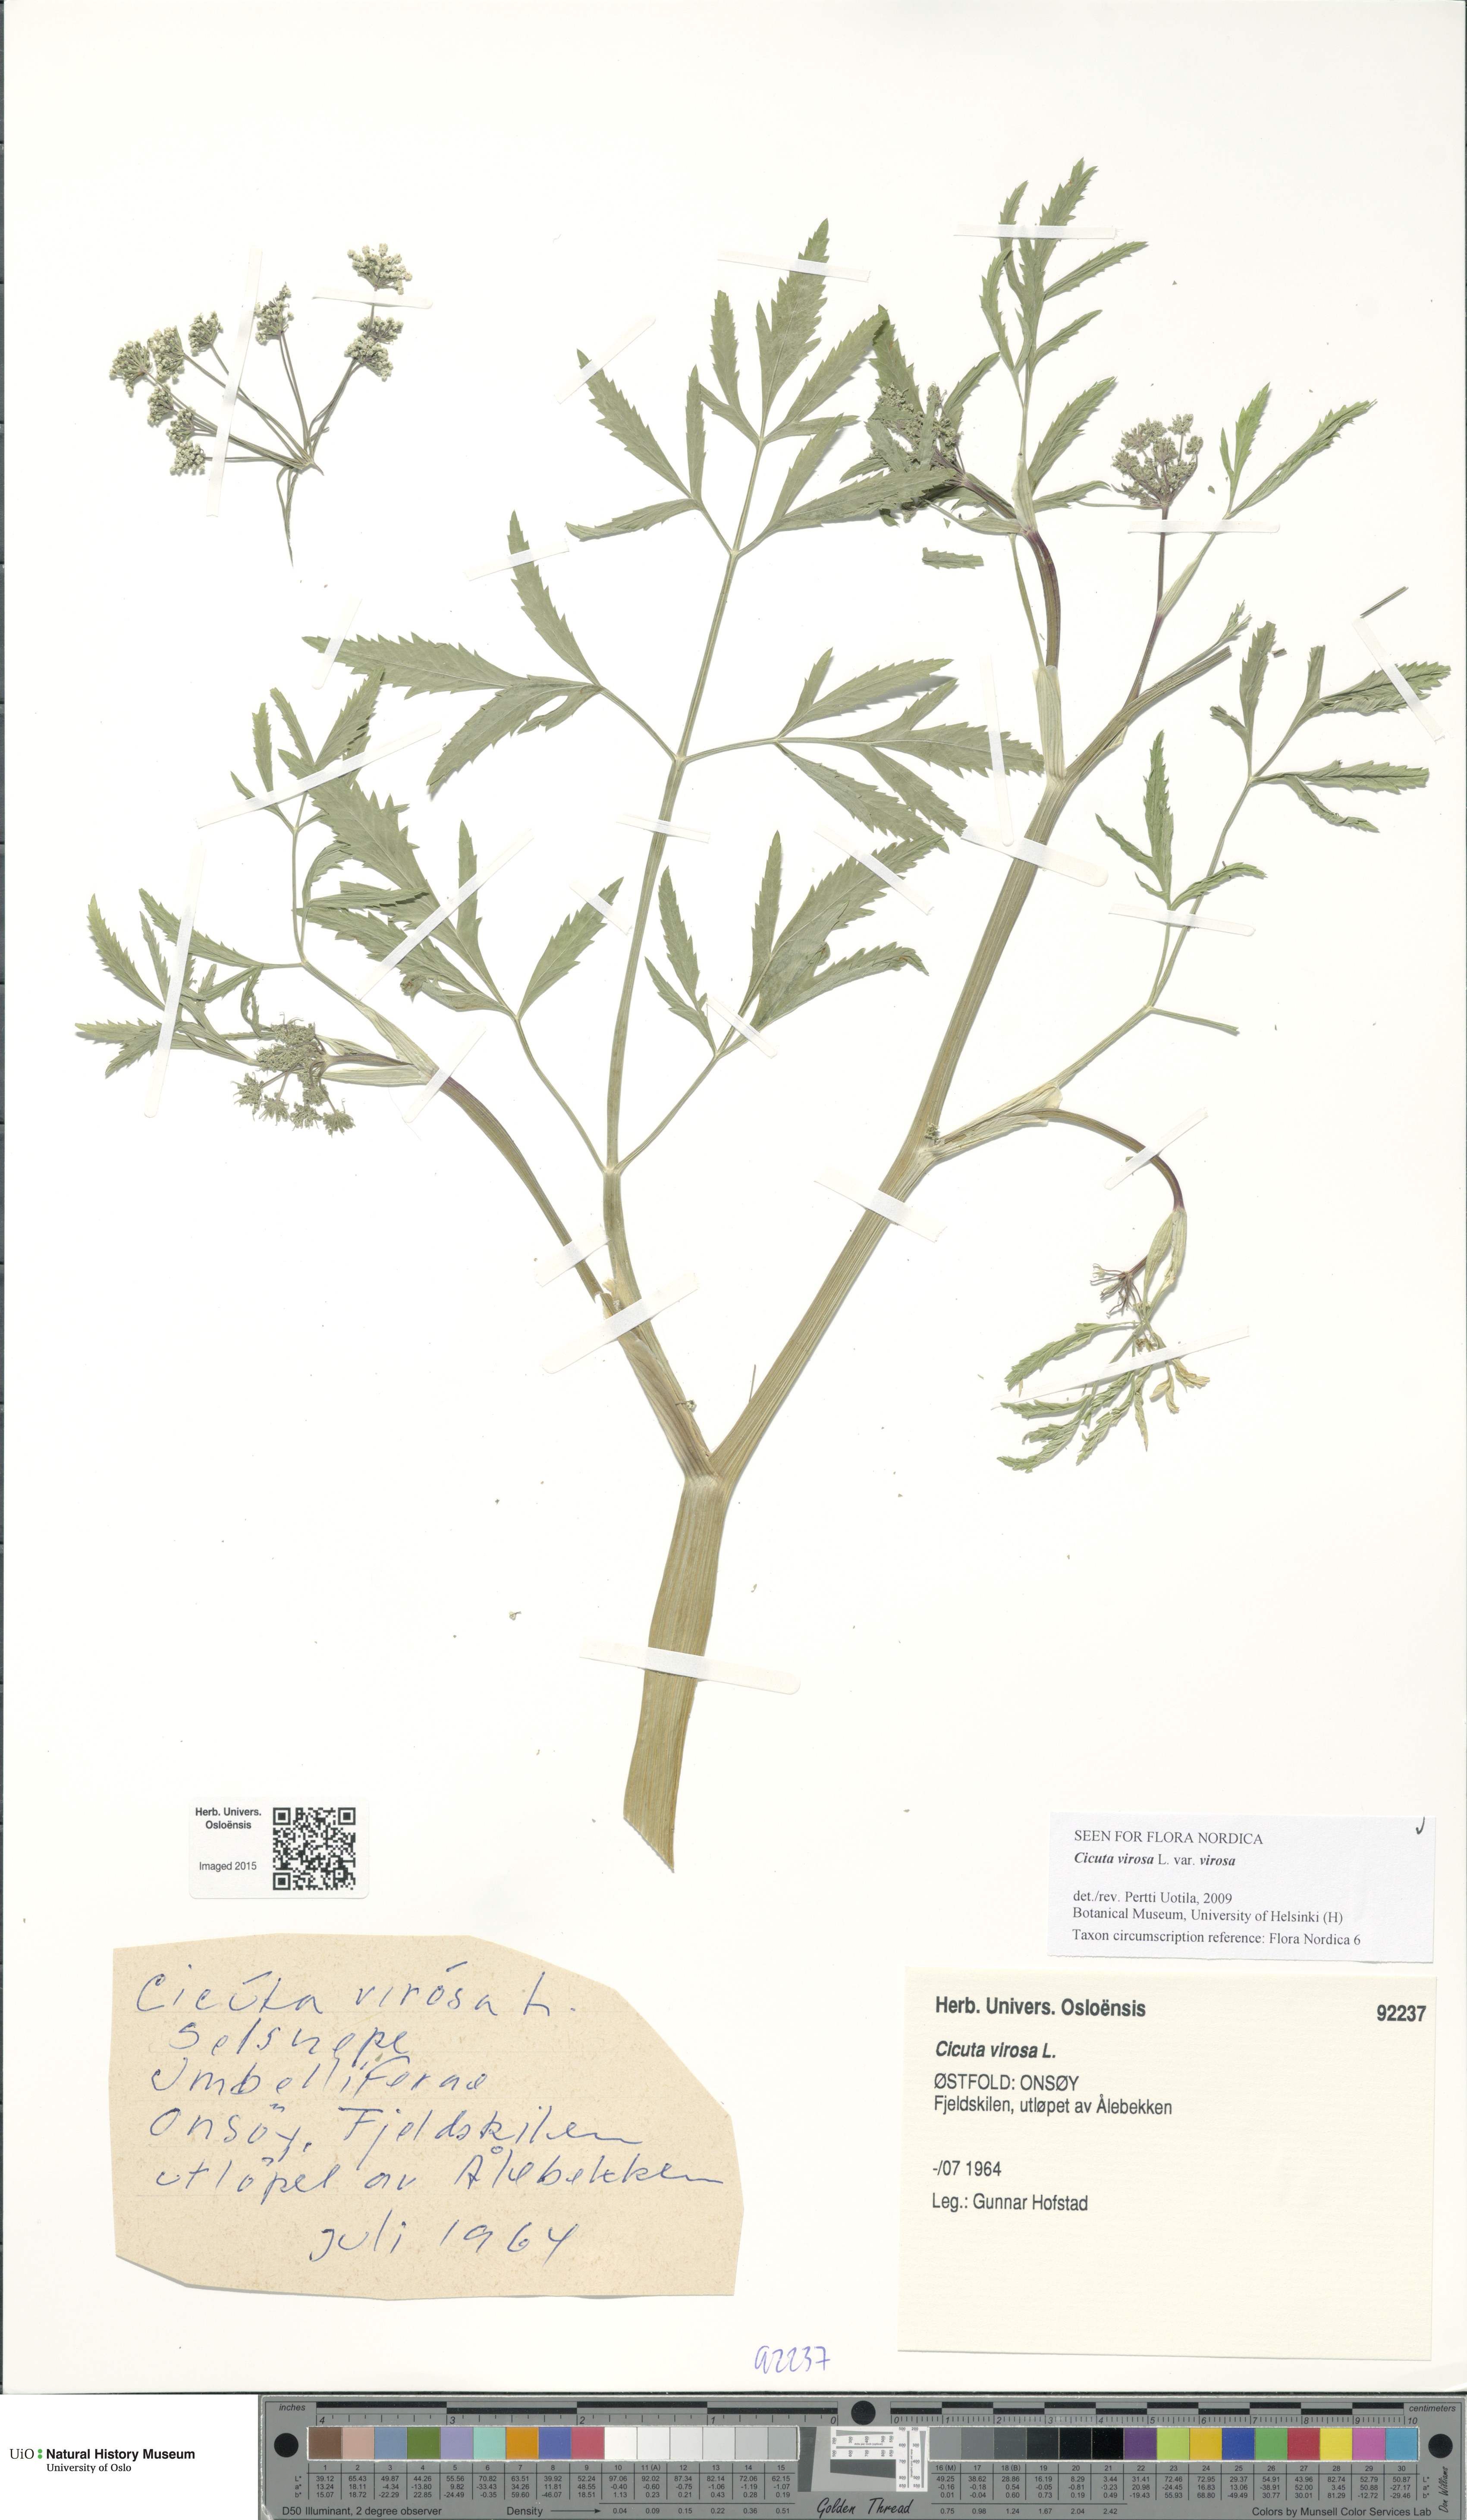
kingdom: Plantae
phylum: Tracheophyta
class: Magnoliopsida
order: Apiales
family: Apiaceae
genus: Cicuta
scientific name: Cicuta virosa
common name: Cowbane
